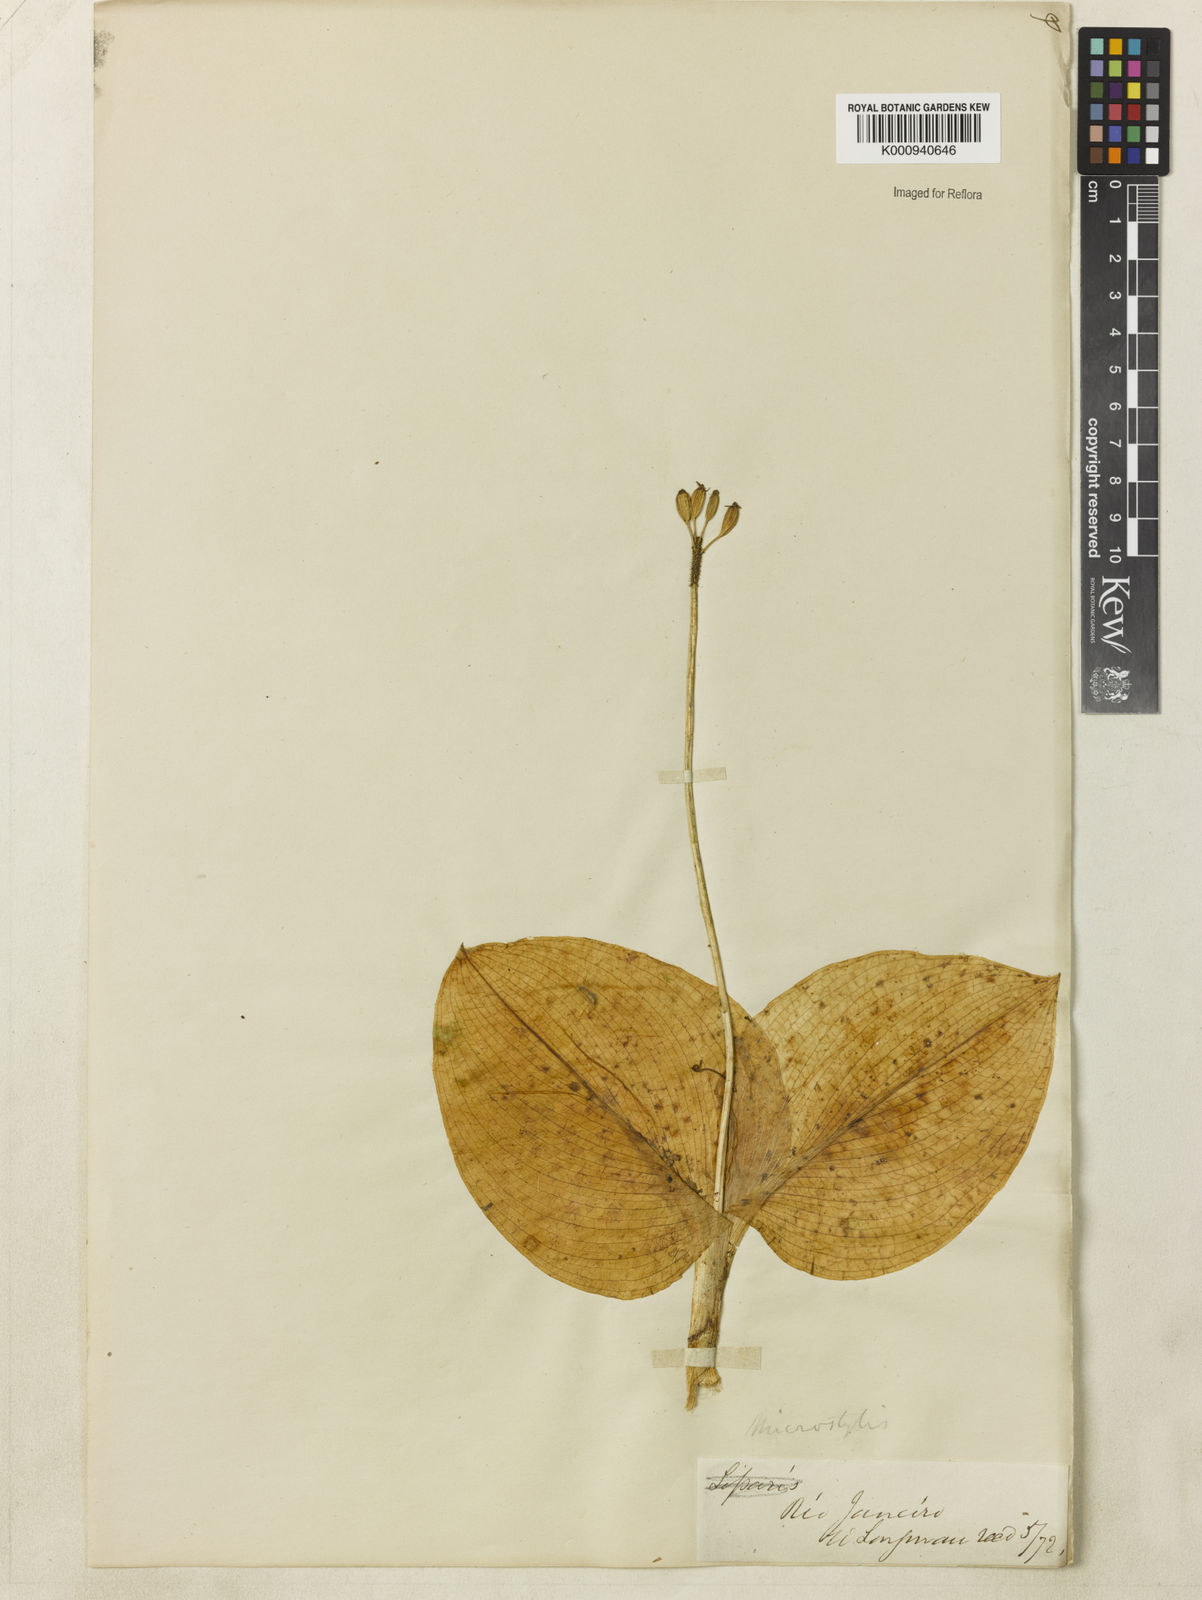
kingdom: Plantae
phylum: Tracheophyta
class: Liliopsida
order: Asparagales
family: Orchidaceae
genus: Malaxis
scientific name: Malaxis
